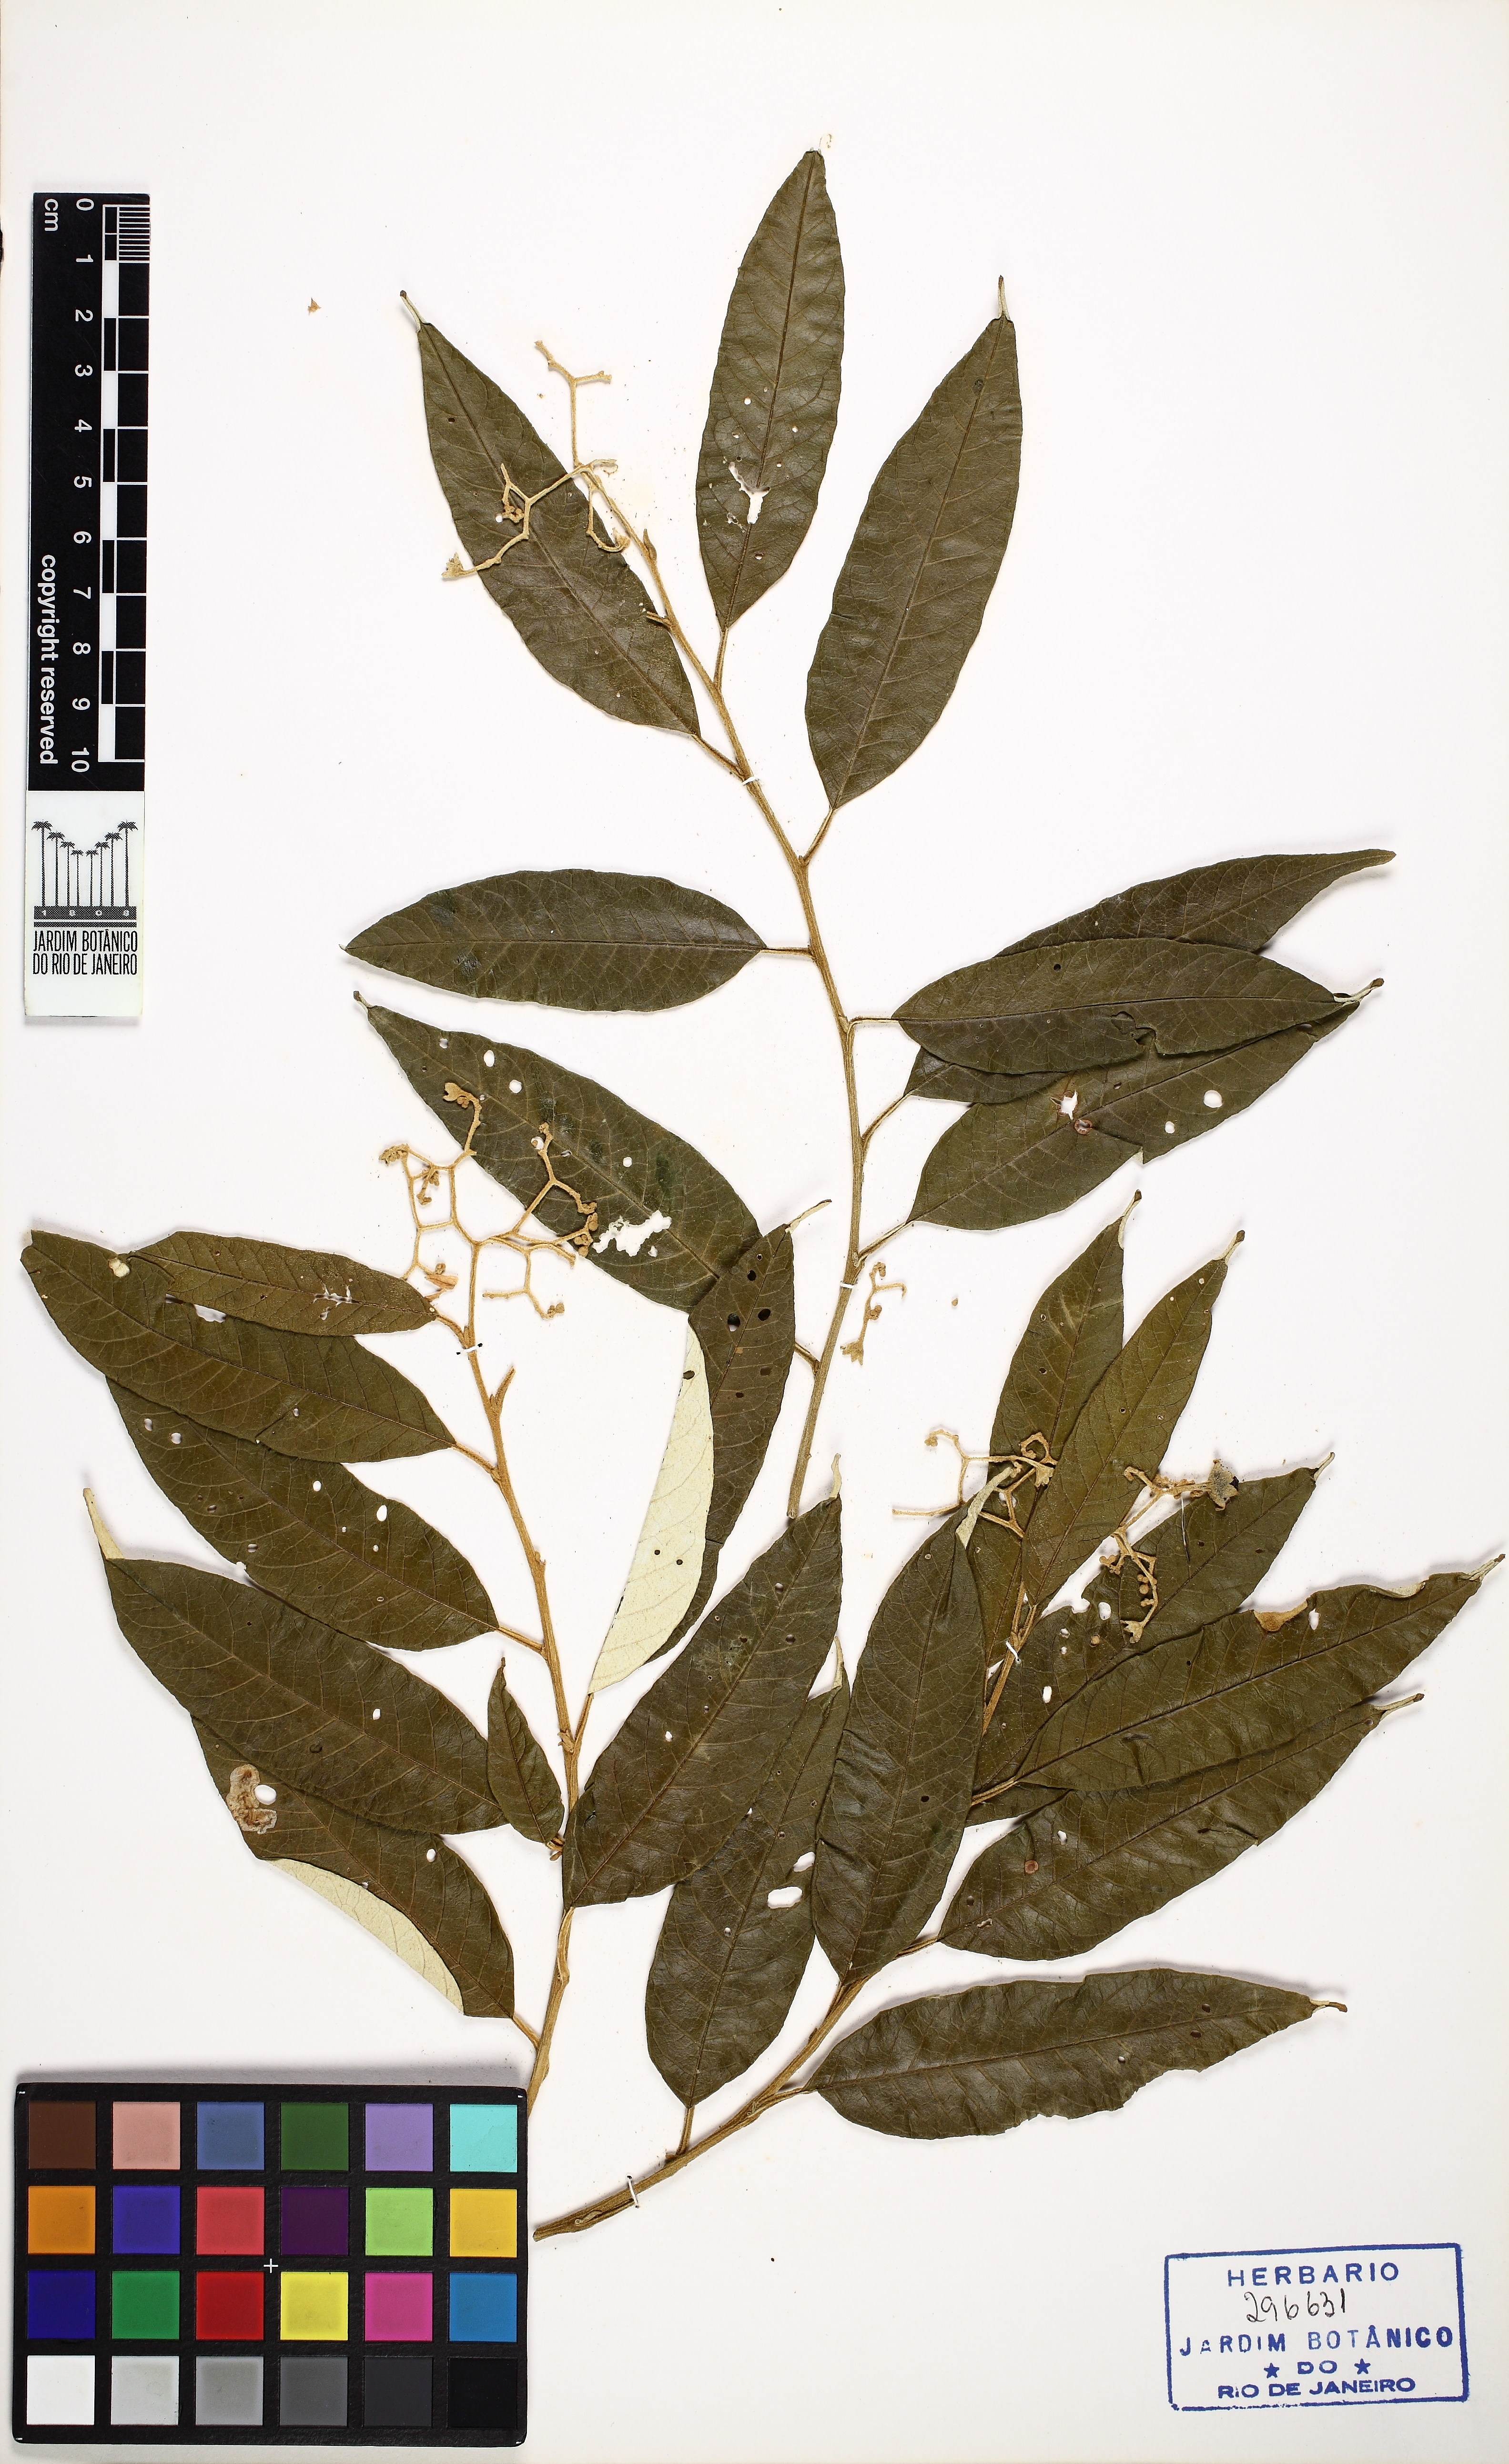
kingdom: Plantae
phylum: Tracheophyta
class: Magnoliopsida
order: Solanales
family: Solanaceae
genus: Solanum
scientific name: Solanum cinnamomeum
